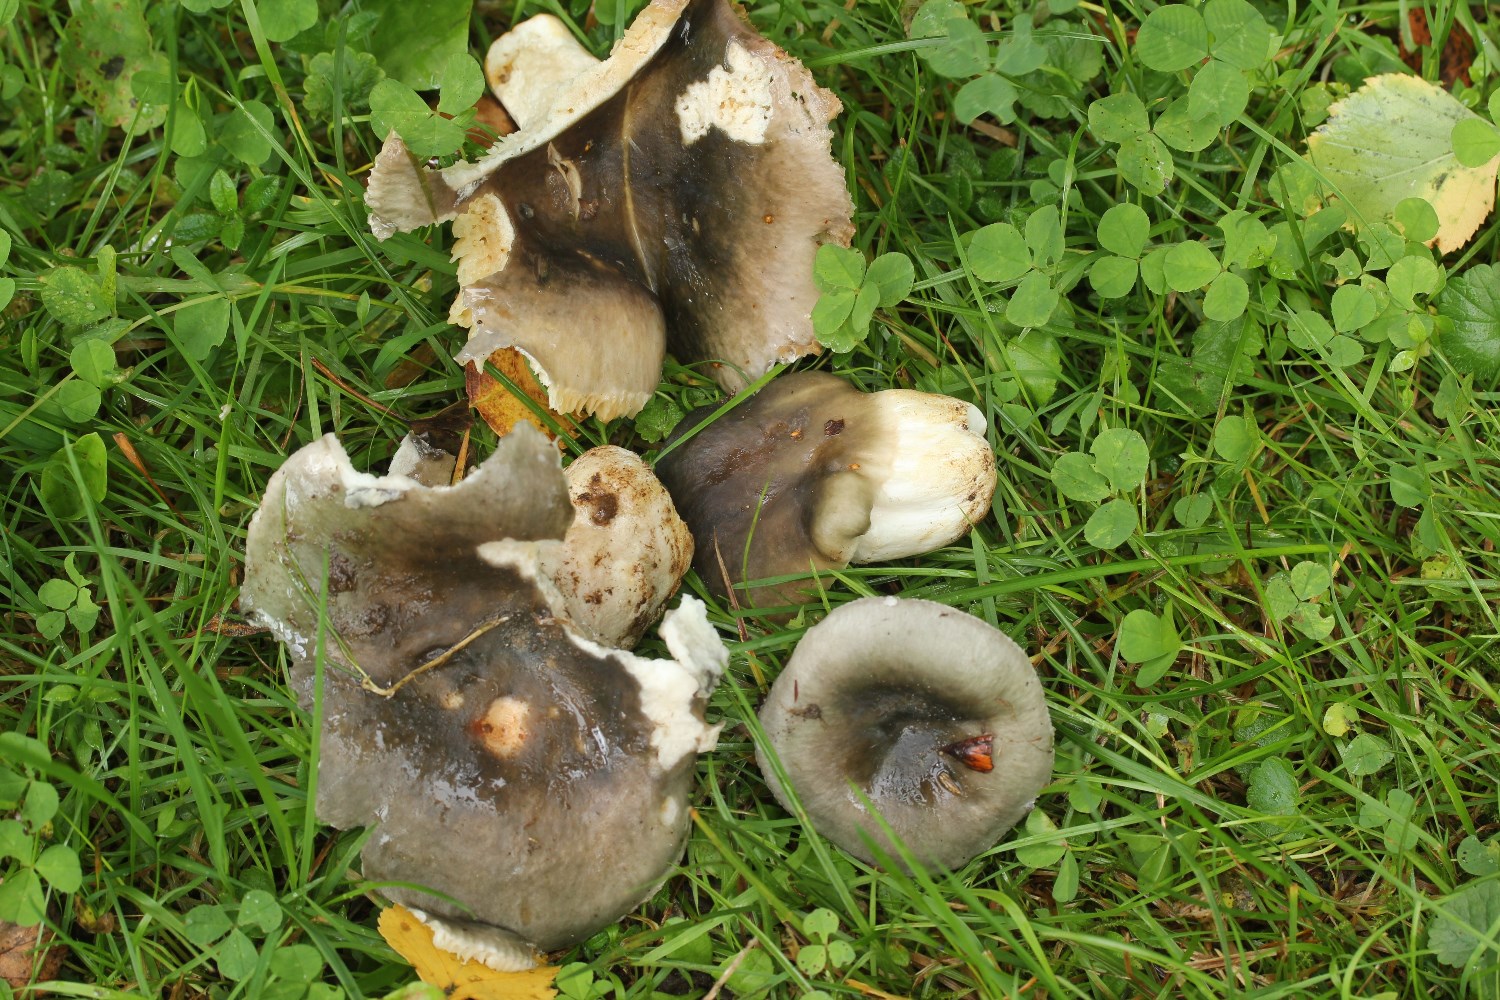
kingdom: Fungi
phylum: Basidiomycota
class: Agaricomycetes
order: Russulales
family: Russulaceae
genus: Russula
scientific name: Russula
